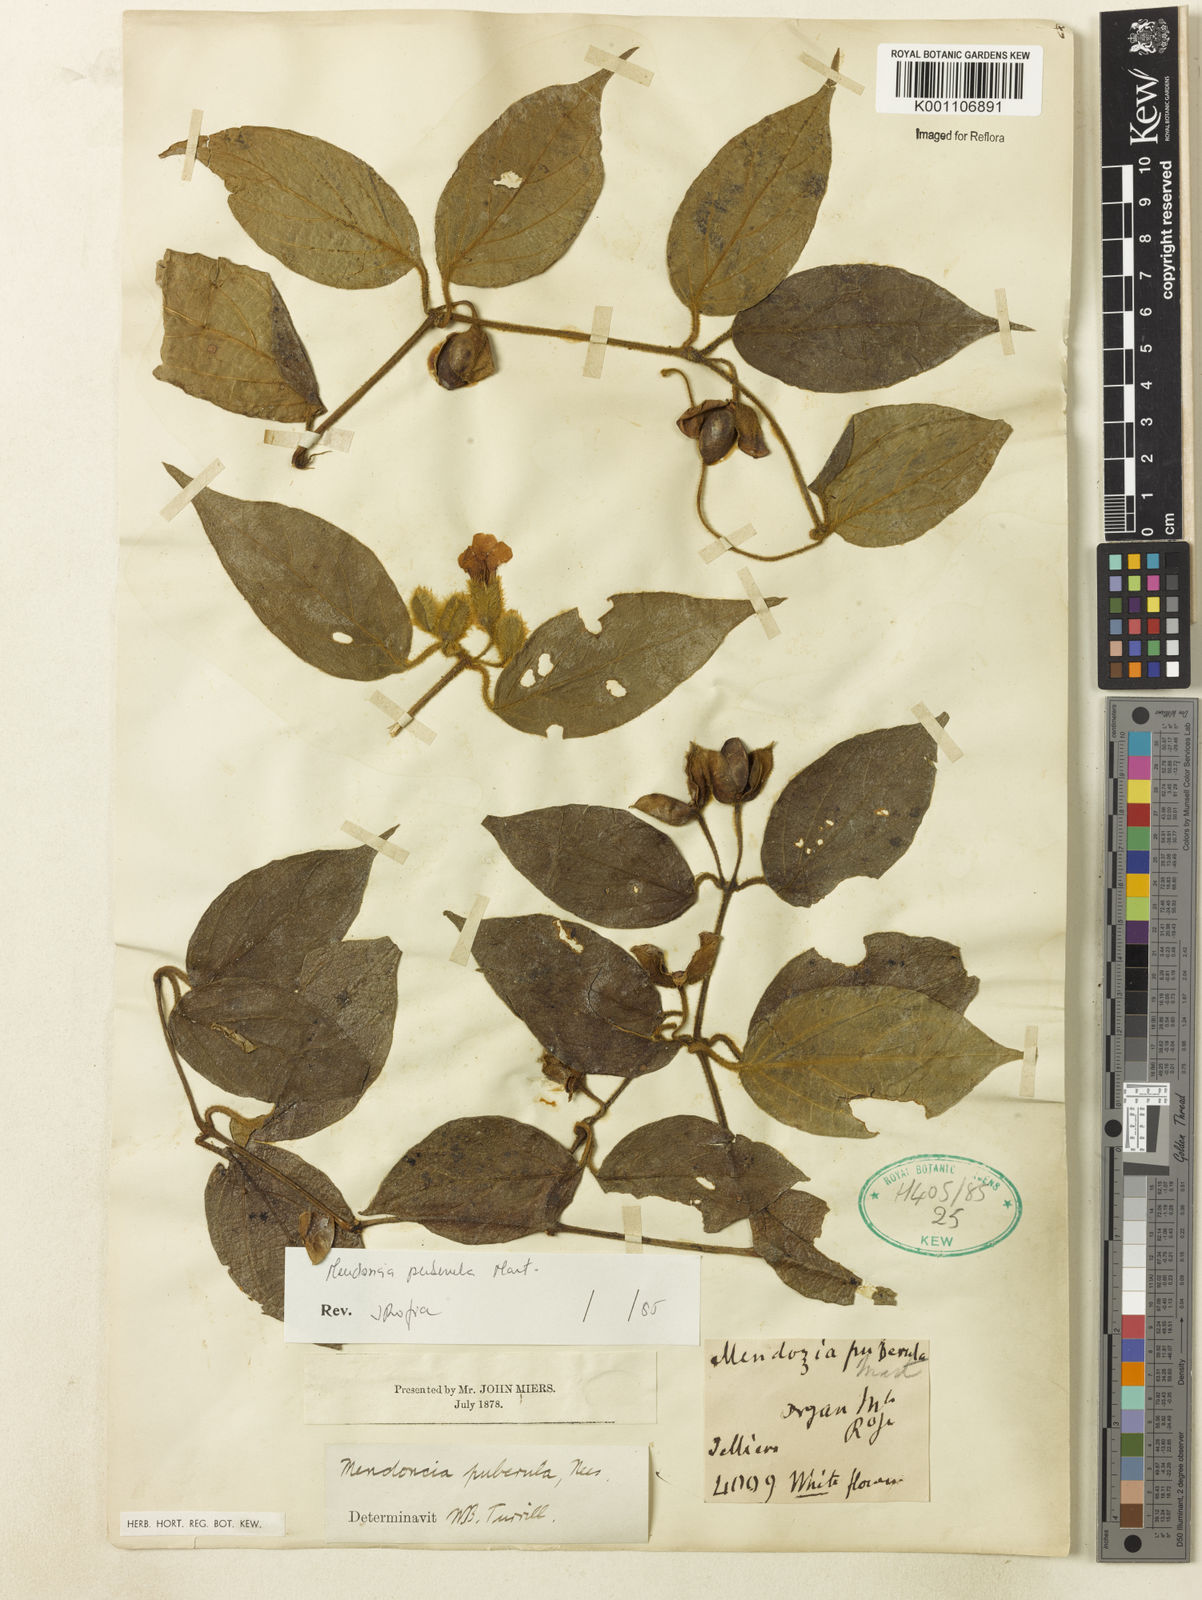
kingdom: Plantae
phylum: Tracheophyta
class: Magnoliopsida
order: Lamiales
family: Acanthaceae
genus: Mendoncia
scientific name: Mendoncia puberula
